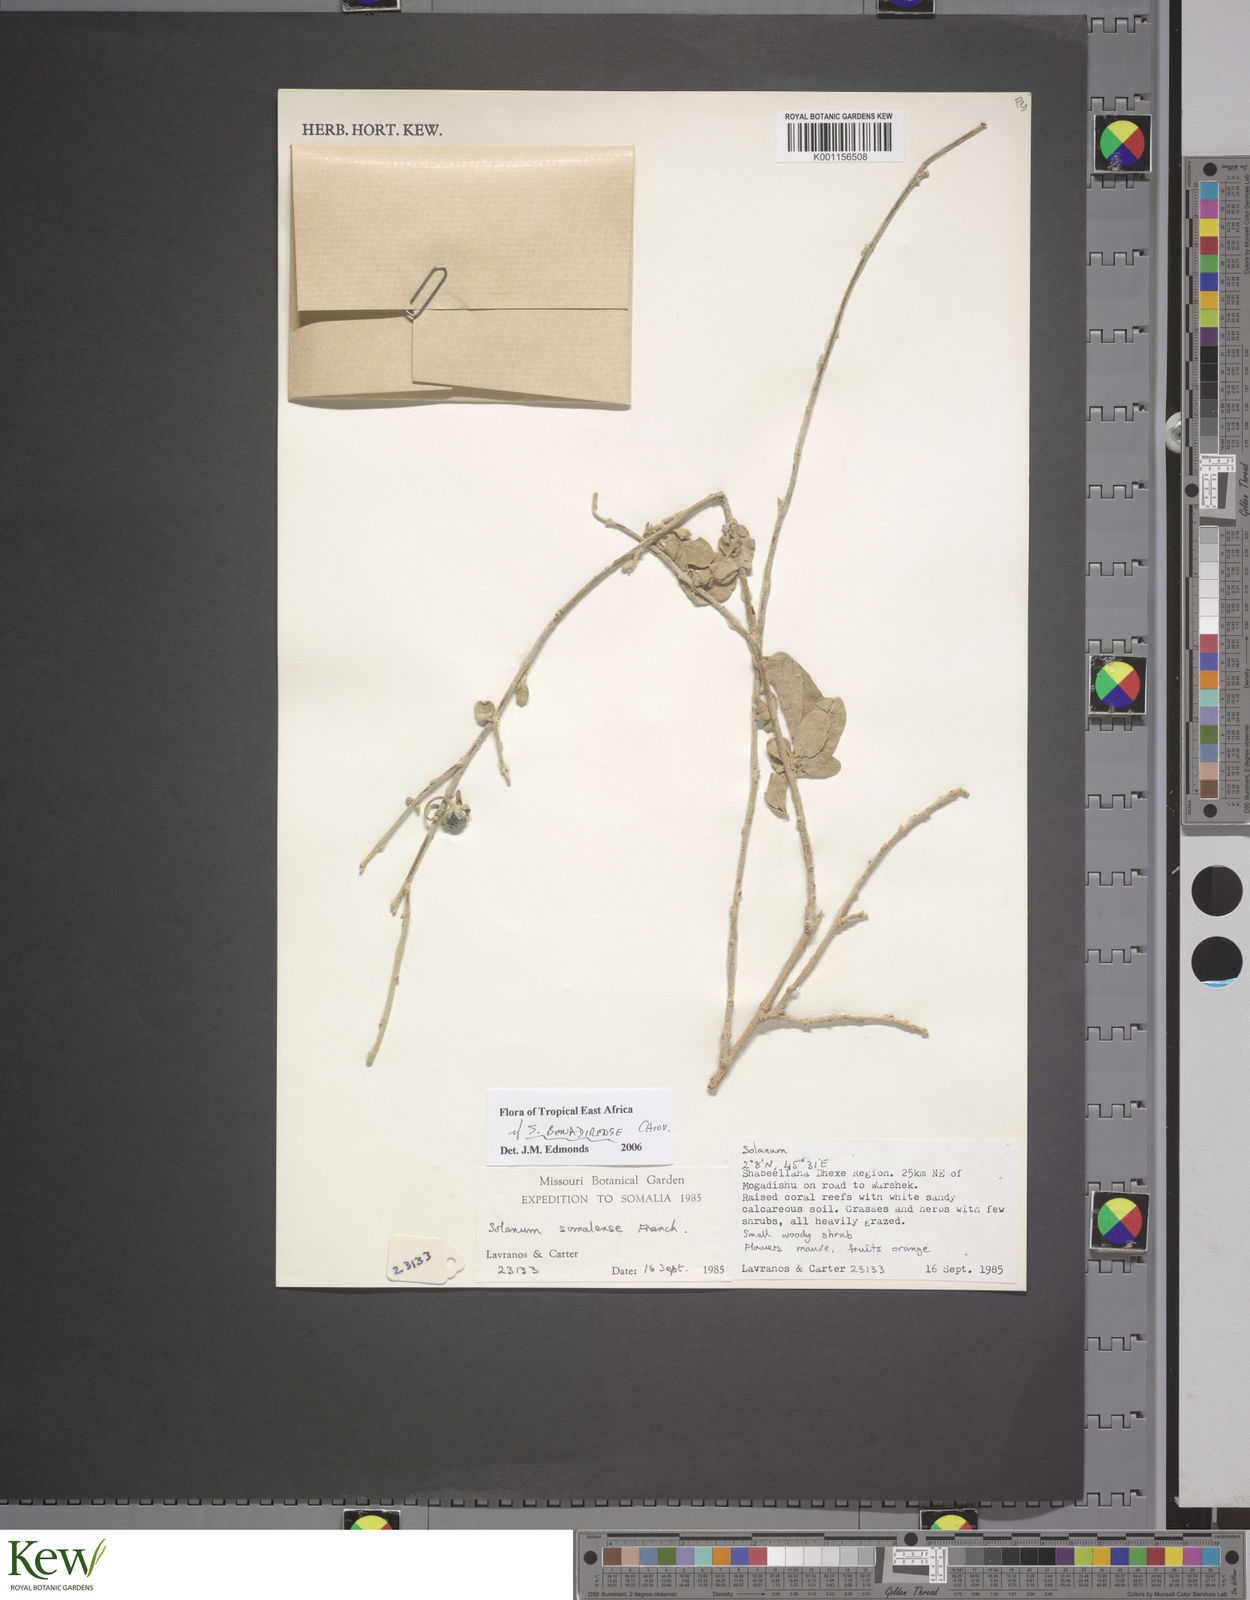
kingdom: Plantae
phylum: Tracheophyta
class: Magnoliopsida
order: Solanales
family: Solanaceae
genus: Solanum
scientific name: Solanum pampaninii
